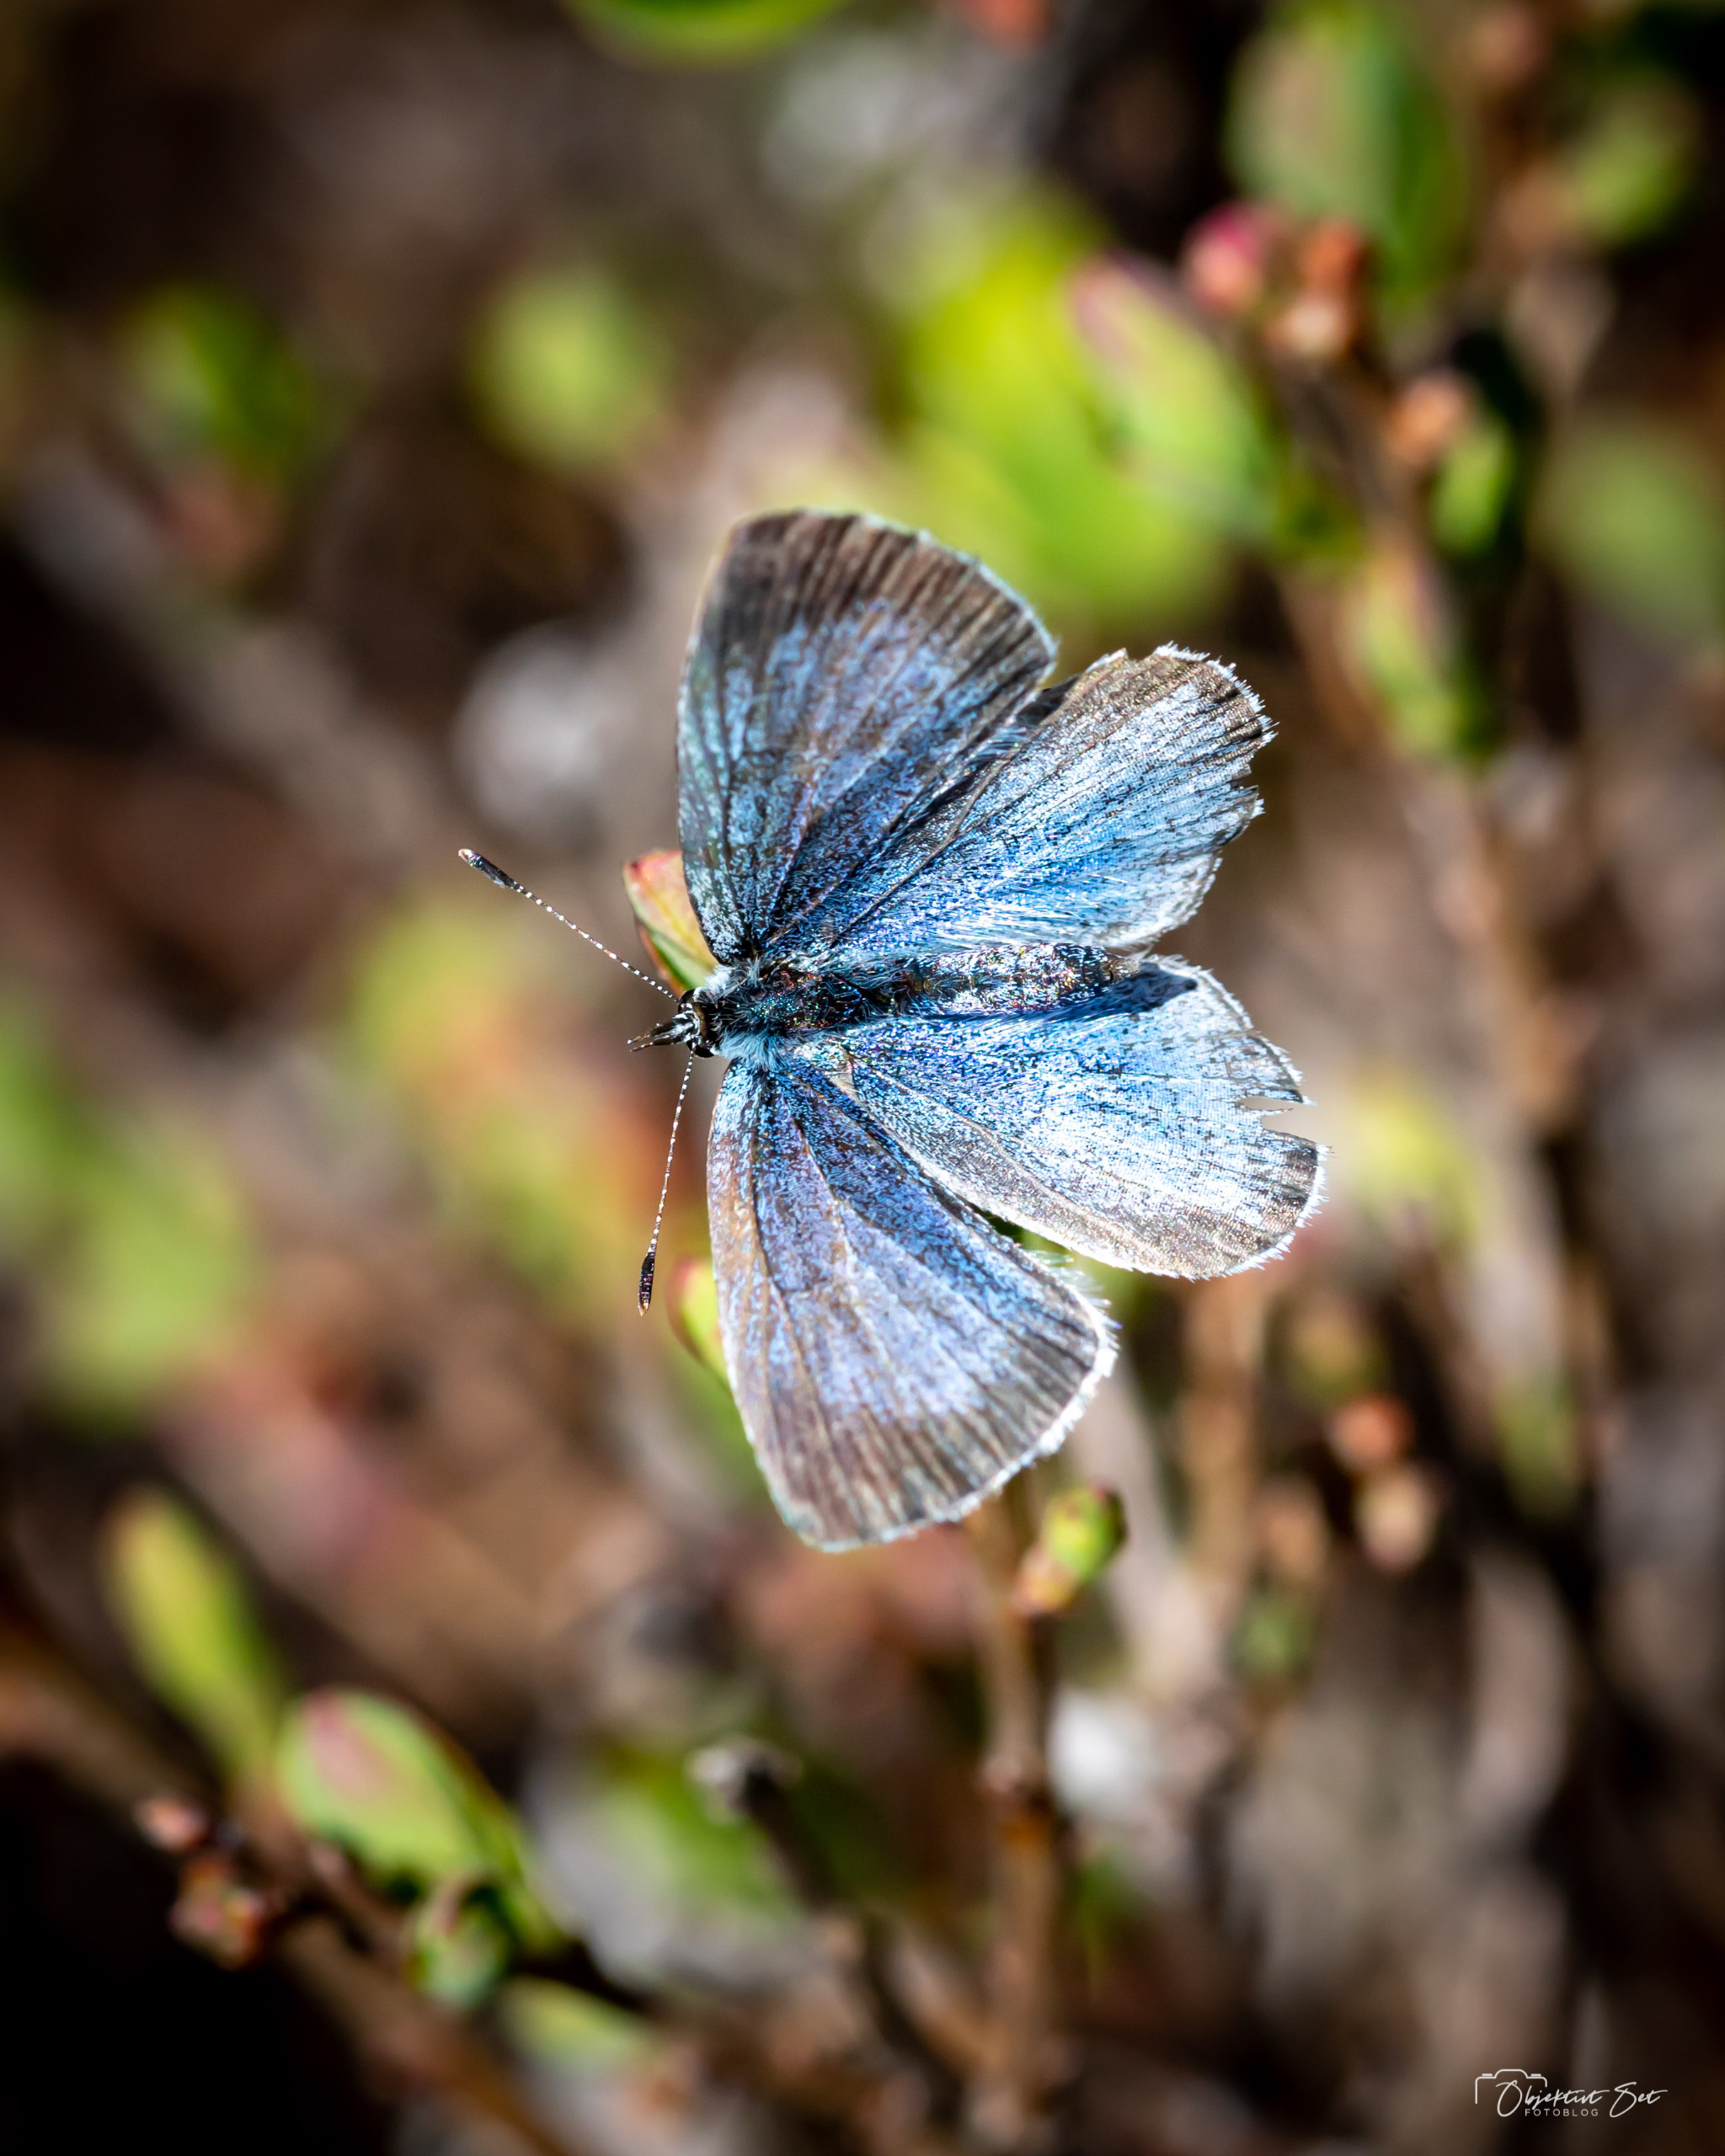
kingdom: Animalia
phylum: Arthropoda
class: Insecta
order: Lepidoptera
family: Lycaenidae
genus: Celastrina
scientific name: Celastrina argiolus
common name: Skovblåfugl
